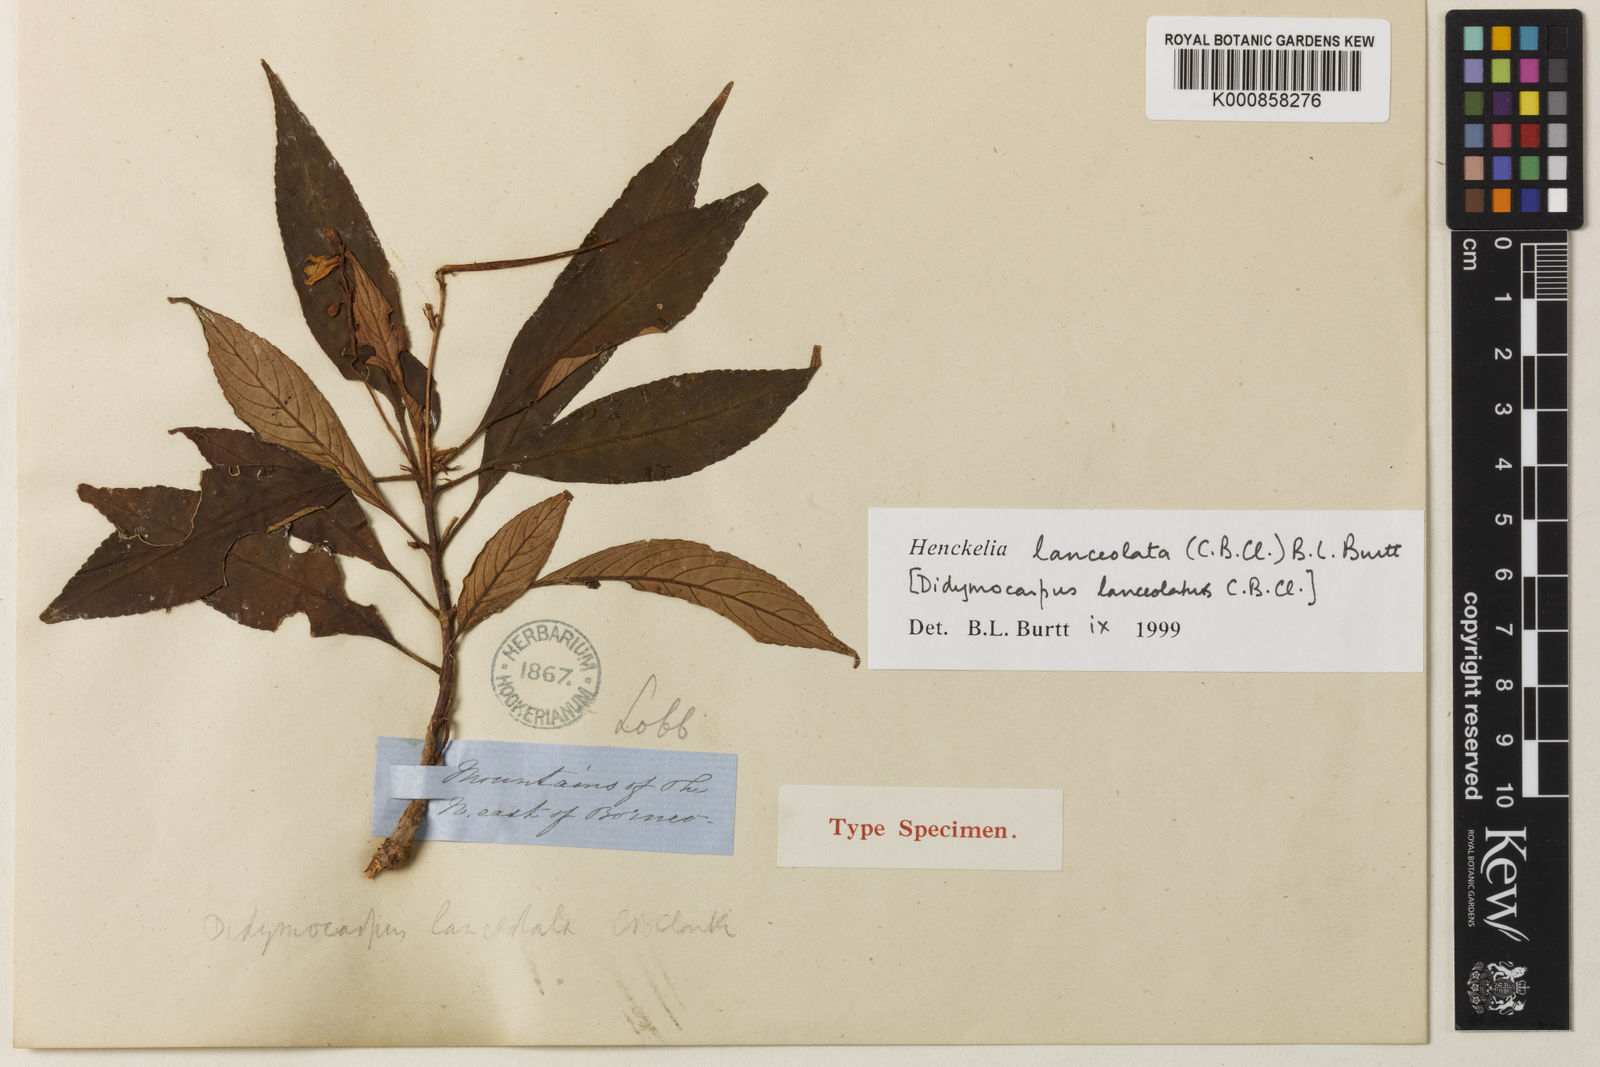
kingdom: Plantae
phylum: Tracheophyta
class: Magnoliopsida
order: Lamiales
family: Gesneriaceae
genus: Codonoboea
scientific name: Codonoboea lanceolata
